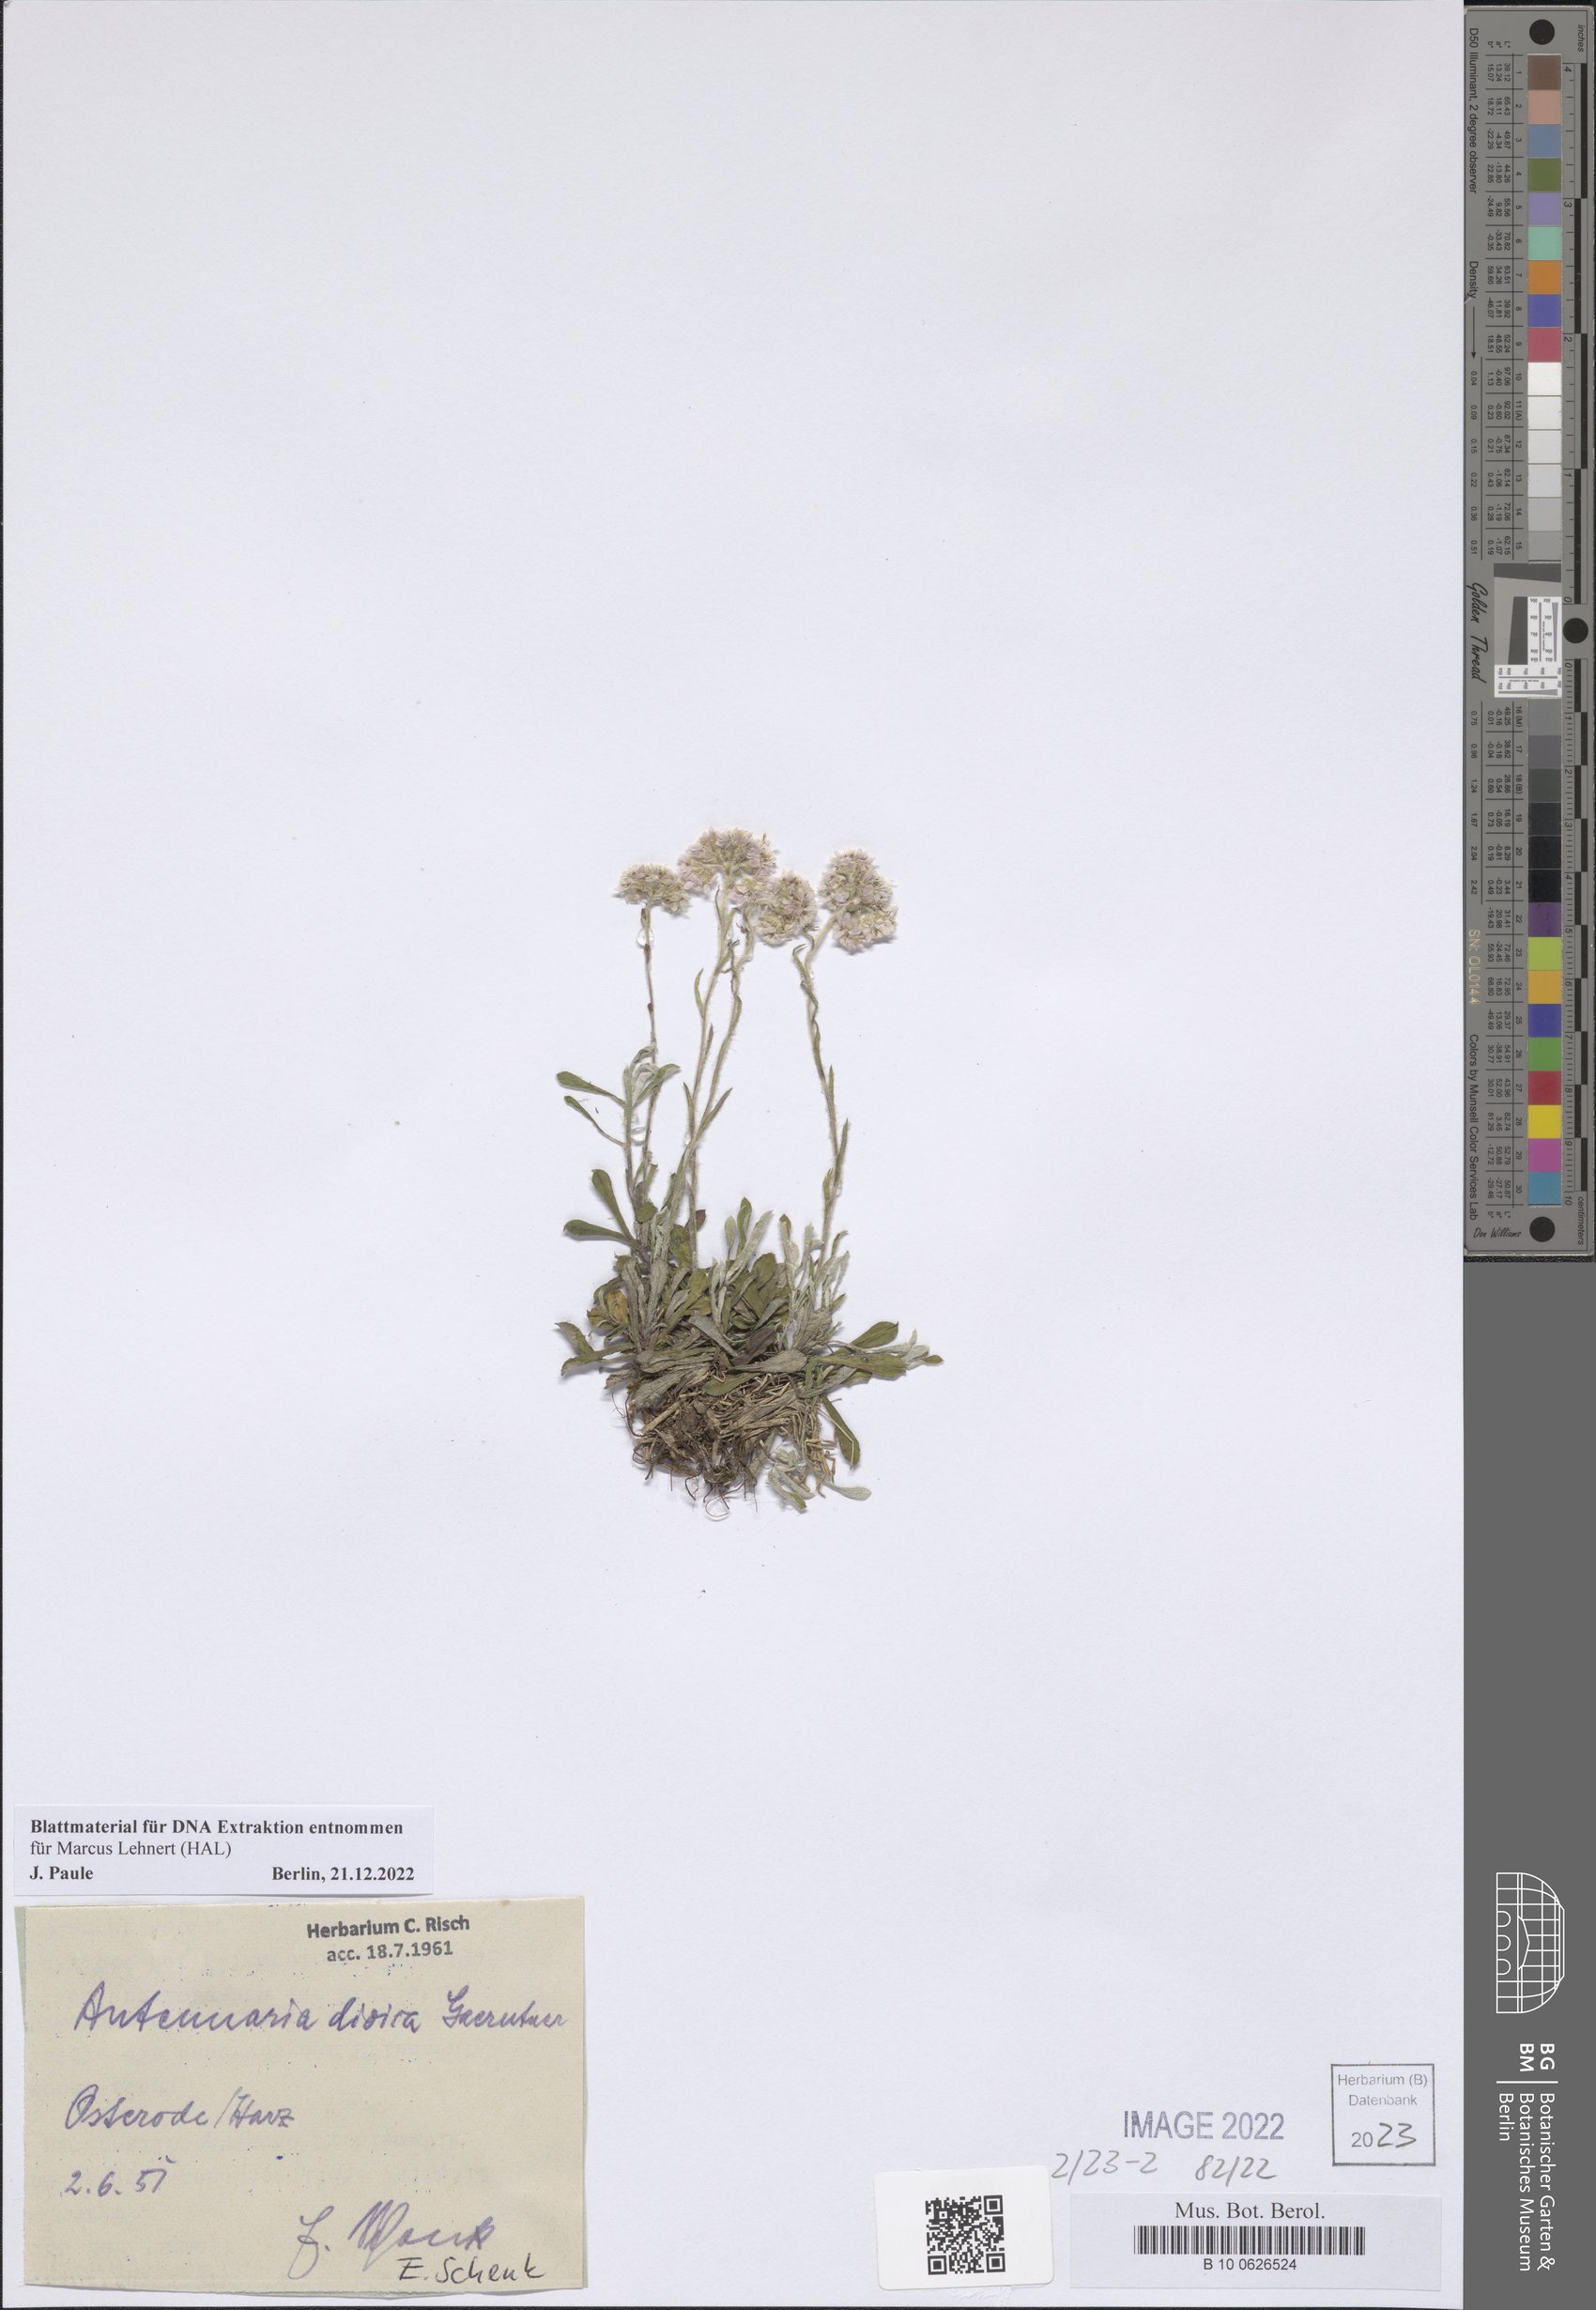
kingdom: Plantae
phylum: Tracheophyta
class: Magnoliopsida
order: Asterales
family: Asteraceae
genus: Antennaria
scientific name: Antennaria dioica
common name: Mountain everlasting
